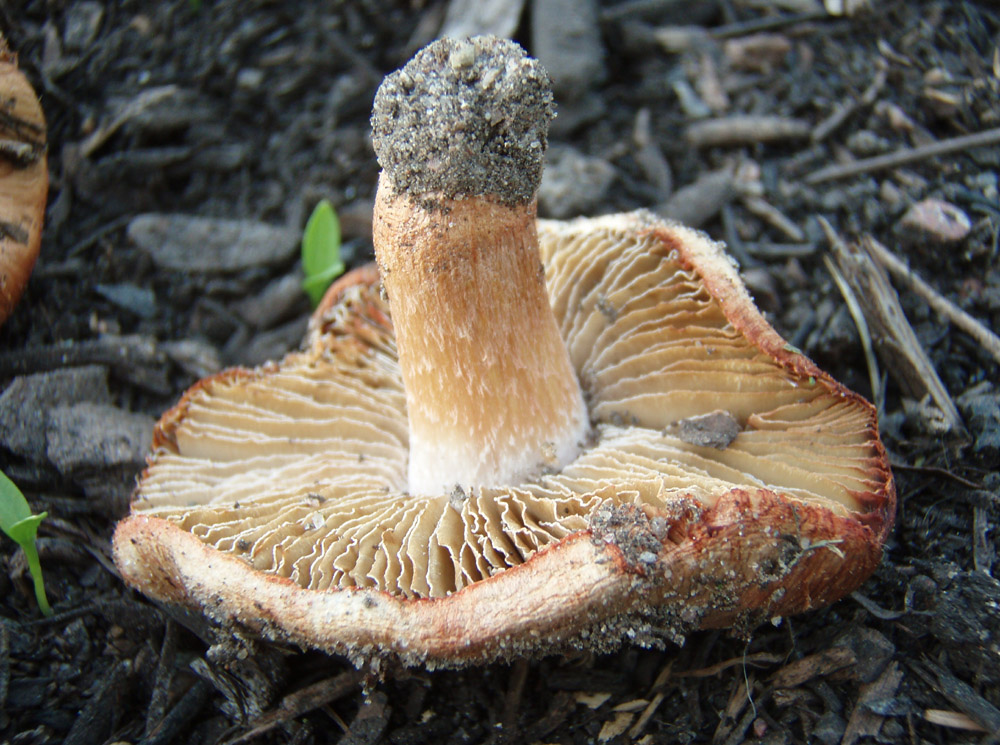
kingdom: Fungi
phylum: Basidiomycota
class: Agaricomycetes
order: Agaricales
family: Inocybaceae
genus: Inosperma
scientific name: Inosperma erubescens
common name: giftig trævlhat
